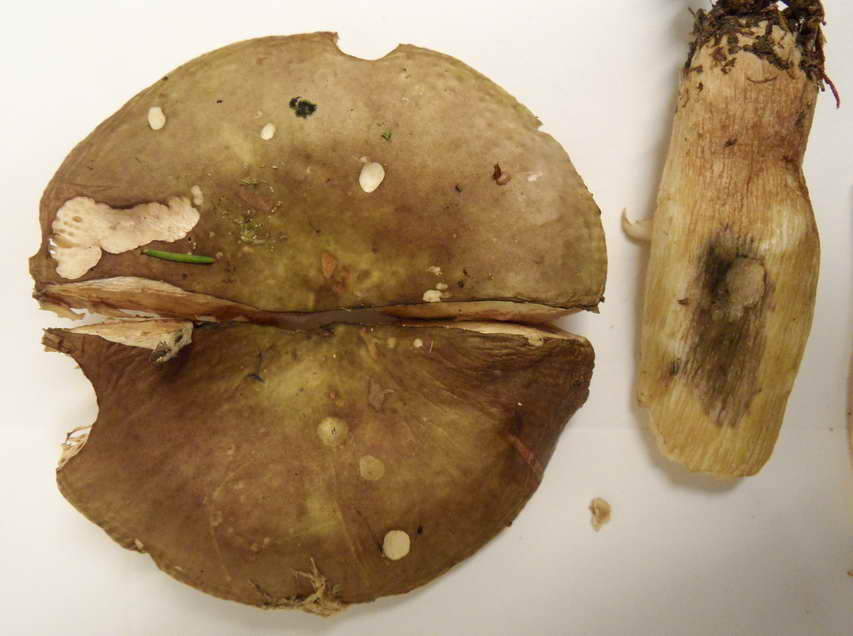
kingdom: Fungi
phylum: Basidiomycota
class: Agaricomycetes
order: Russulales
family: Russulaceae
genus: Russula
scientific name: Russula clavipes
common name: olivengrøn skørhat
